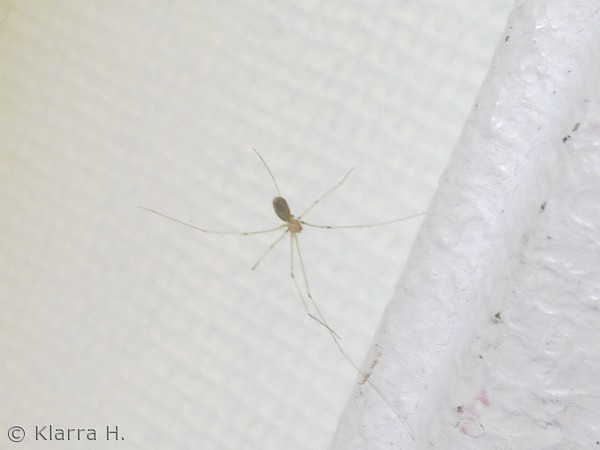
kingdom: Animalia
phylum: Arthropoda
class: Arachnida
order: Araneae
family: Pholcidae
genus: Pholcus
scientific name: Pholcus phalangioides
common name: Mejeredderkop
